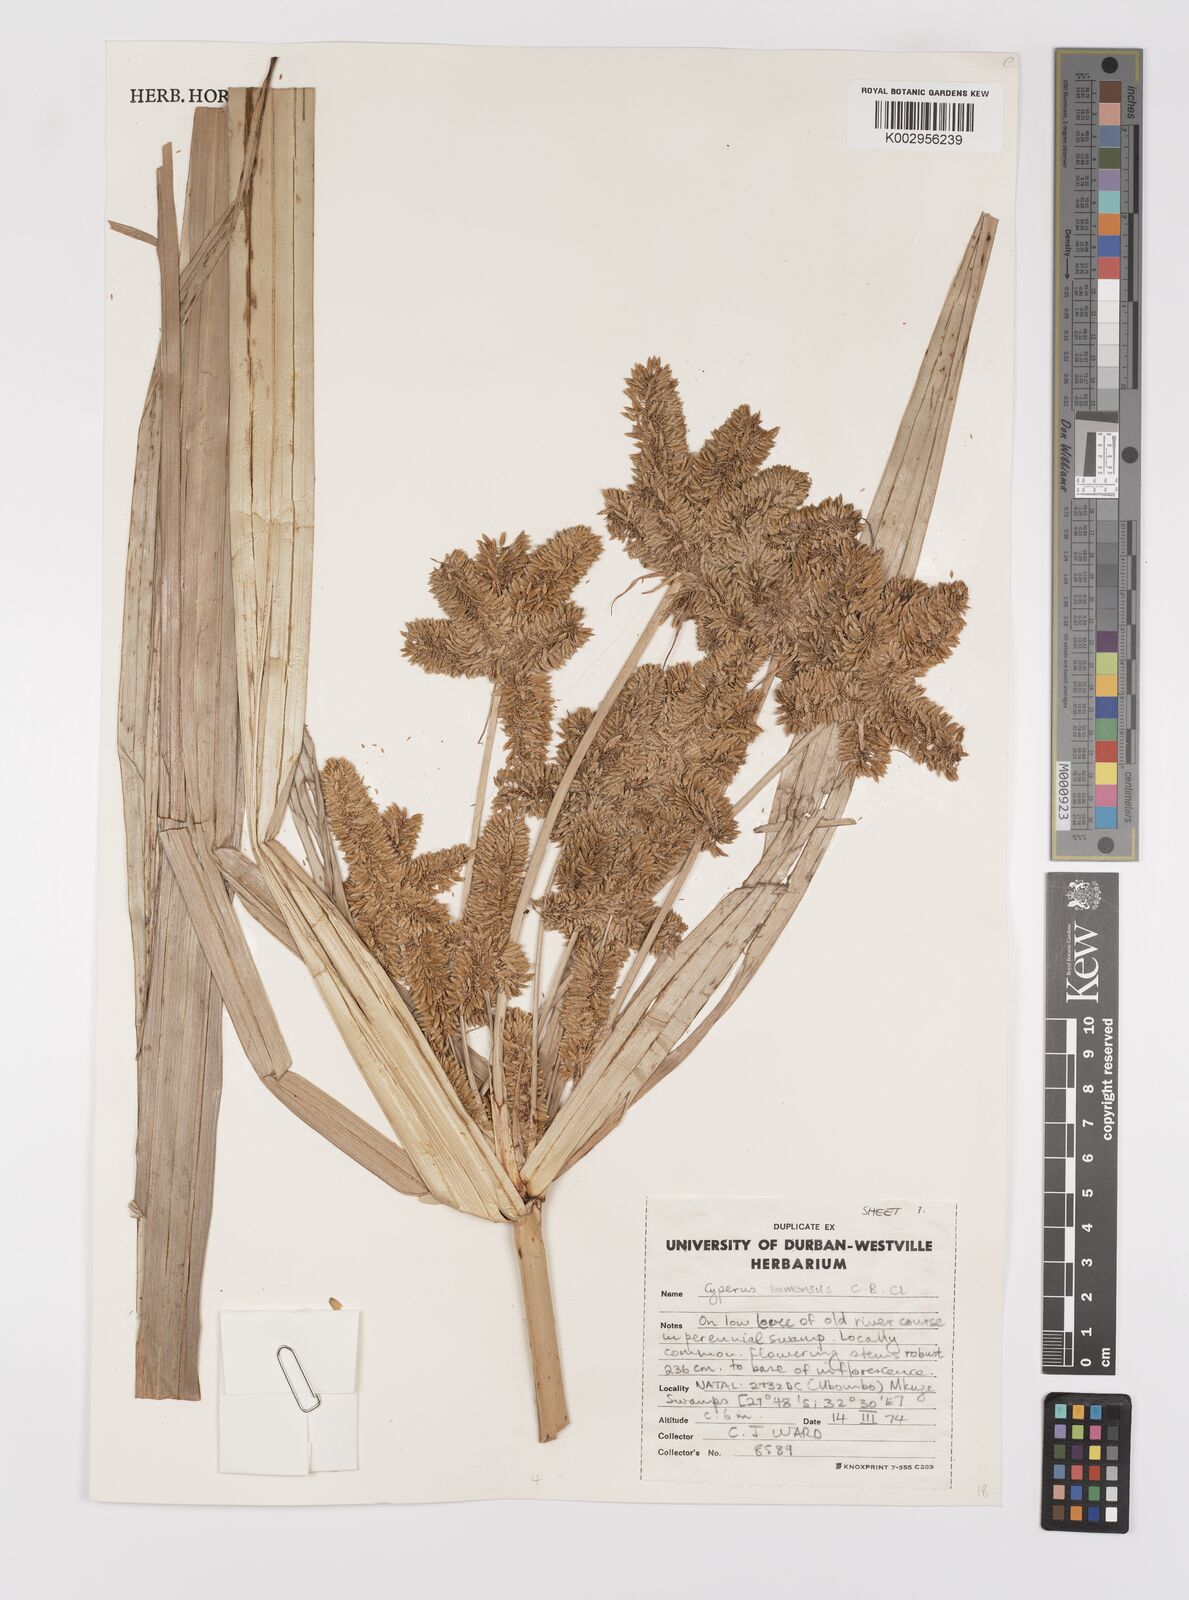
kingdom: Plantae
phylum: Tracheophyta
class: Liliopsida
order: Poales
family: Cyperaceae
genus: Cyperus
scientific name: Cyperus dives
